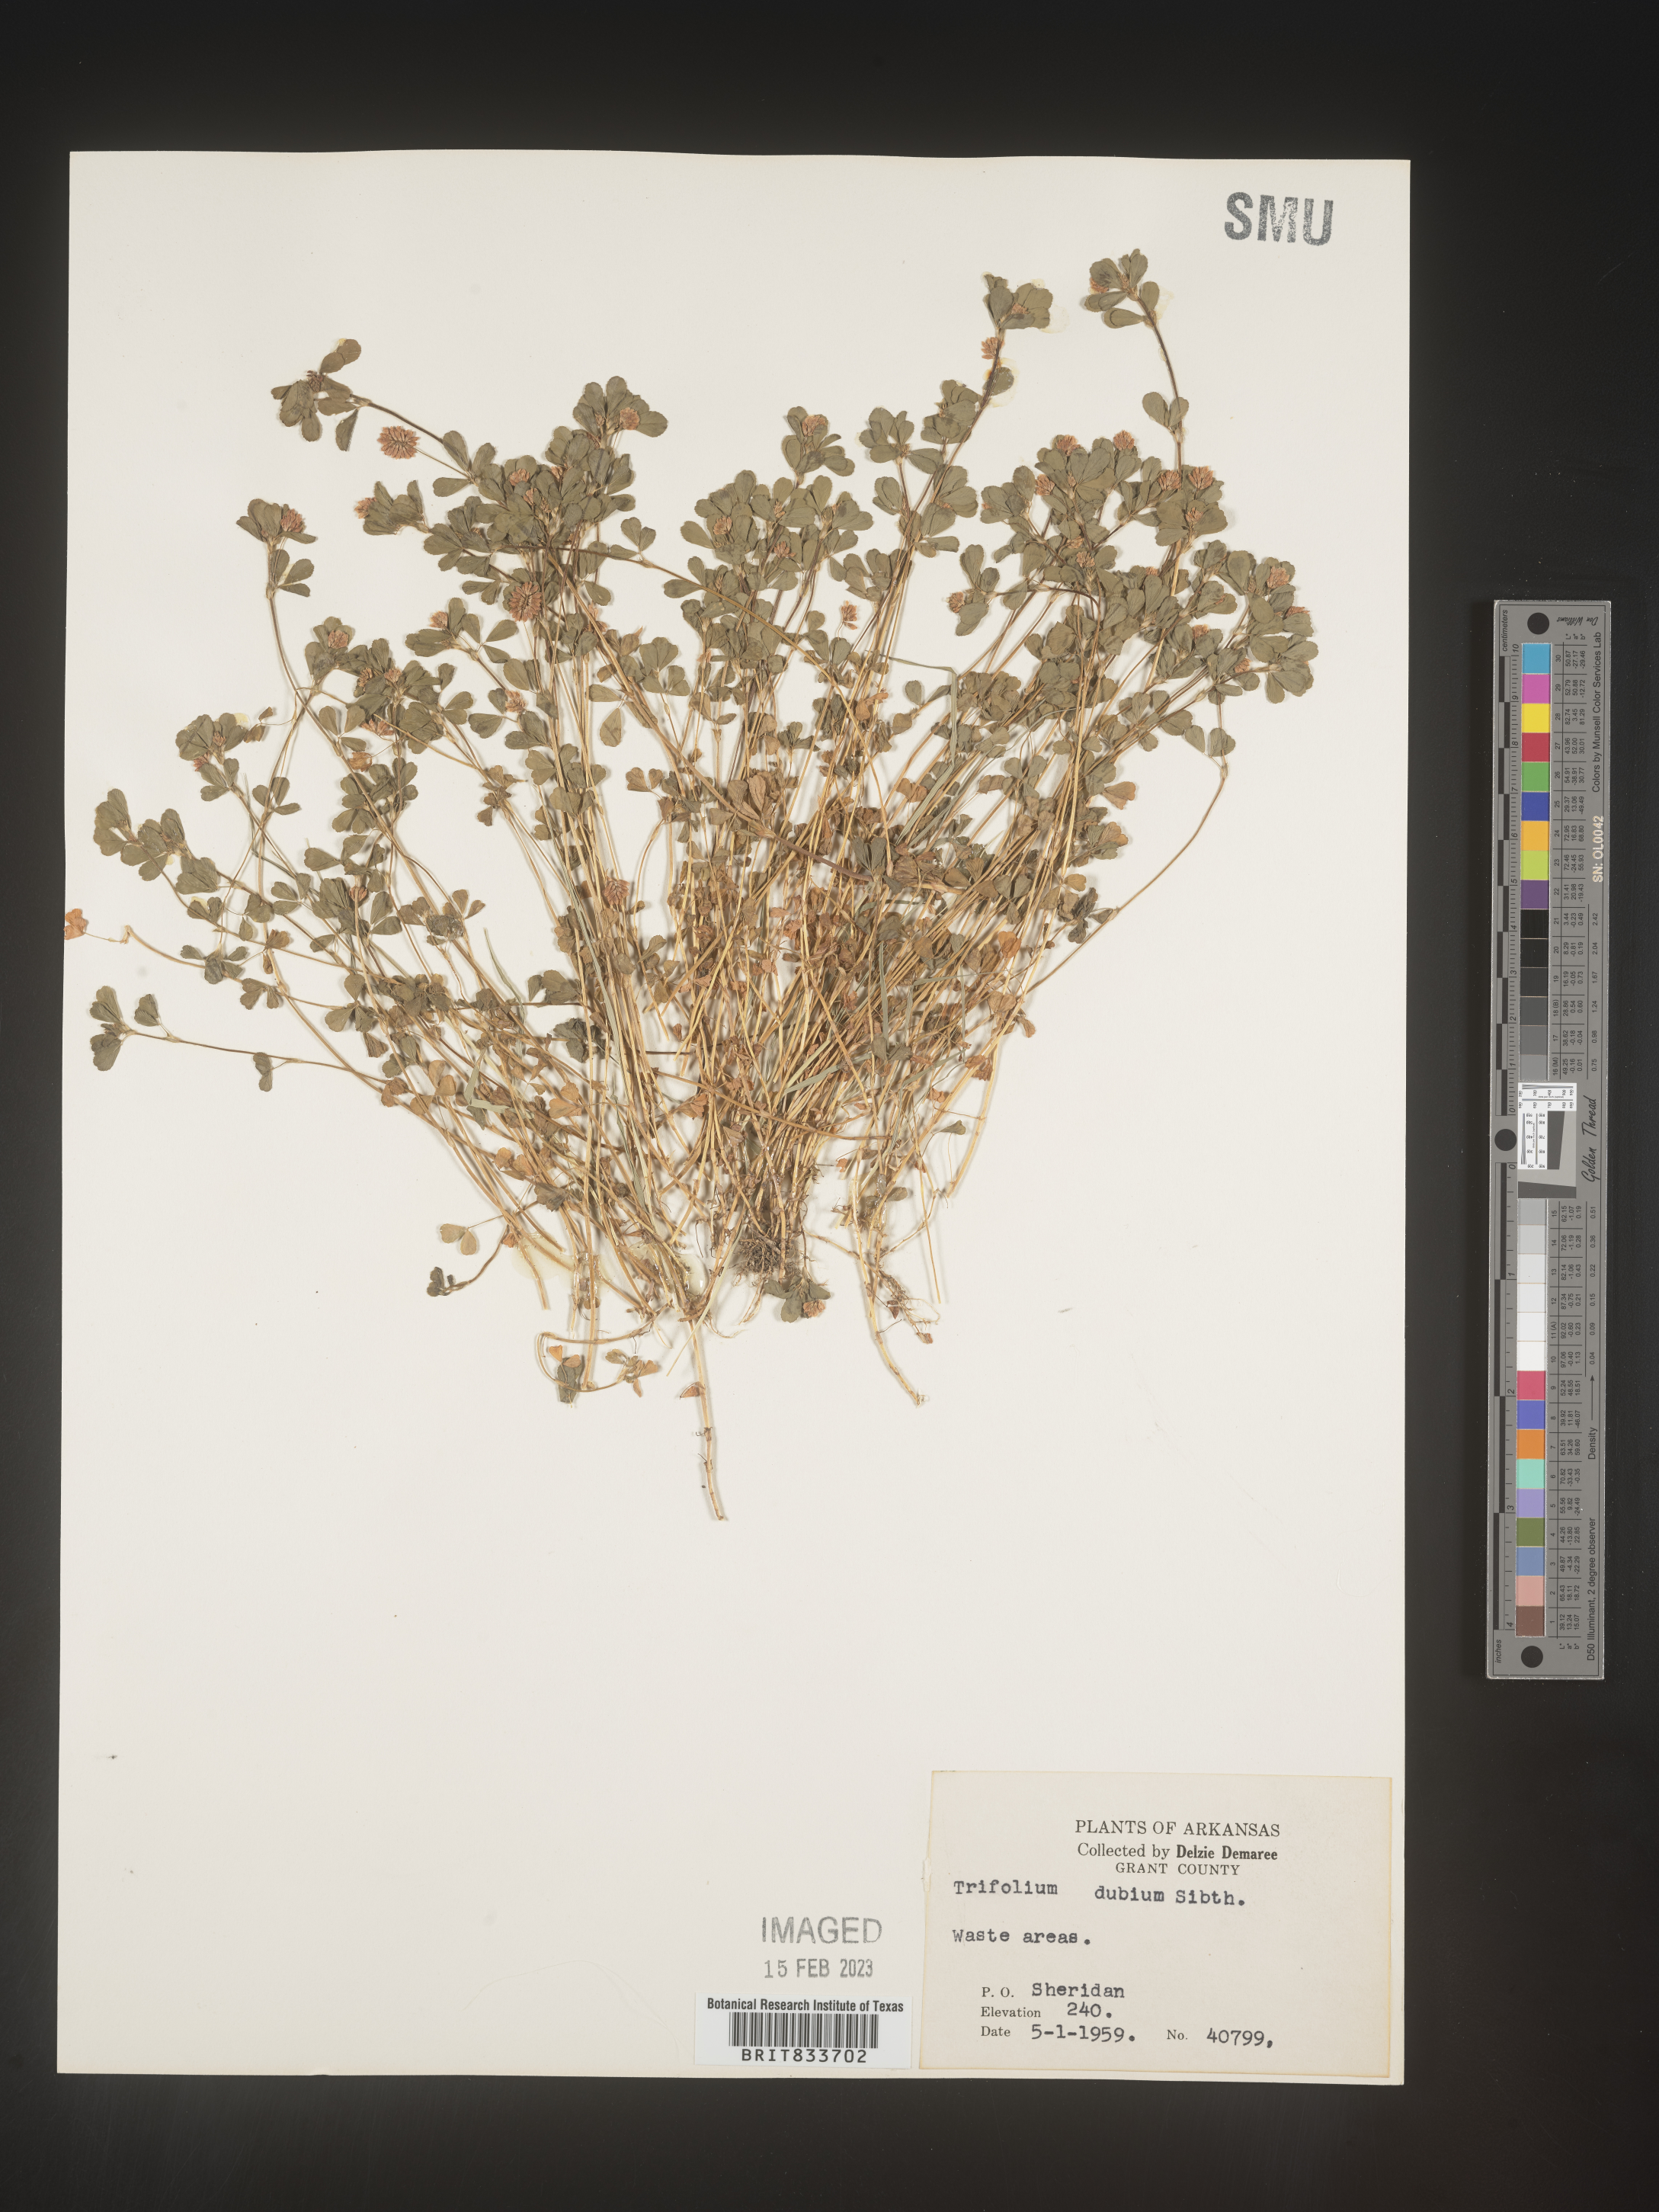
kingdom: Plantae
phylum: Tracheophyta
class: Magnoliopsida
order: Fabales
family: Fabaceae
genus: Trifolium
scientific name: Trifolium dubium
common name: Suckling clover
